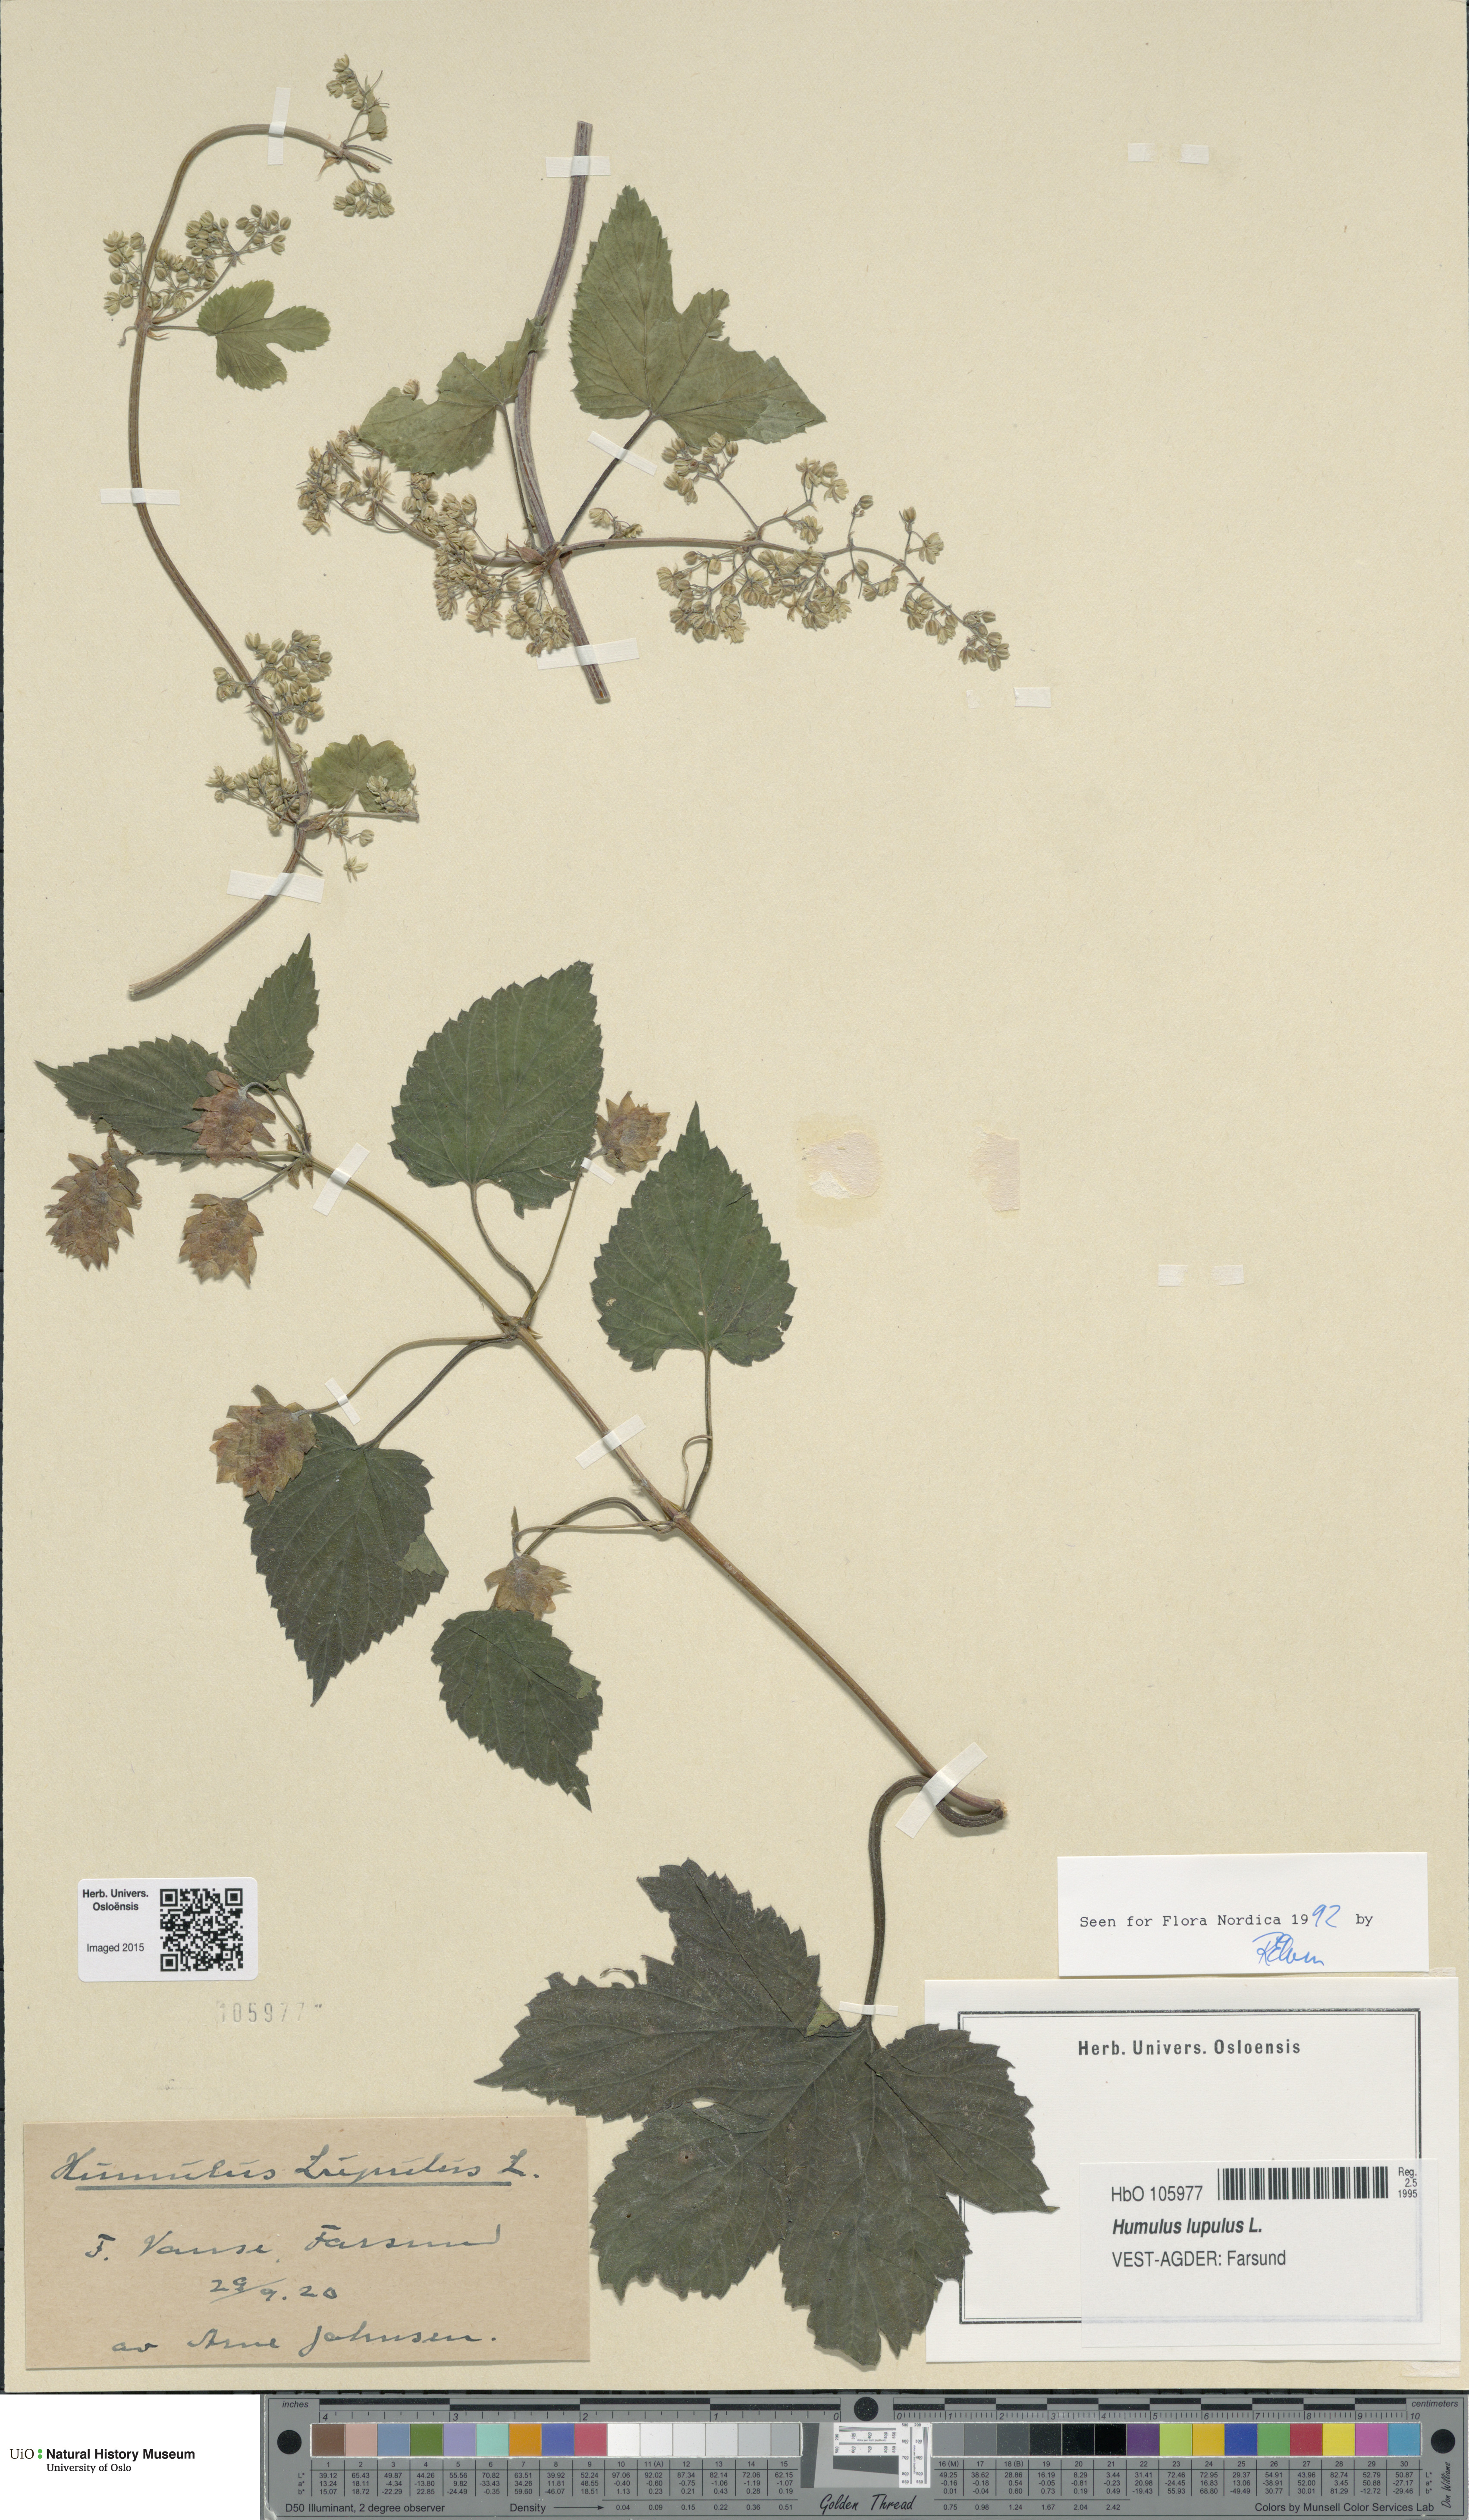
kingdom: Plantae
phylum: Tracheophyta
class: Magnoliopsida
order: Rosales
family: Cannabaceae
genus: Humulus
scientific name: Humulus lupulus
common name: Hop
